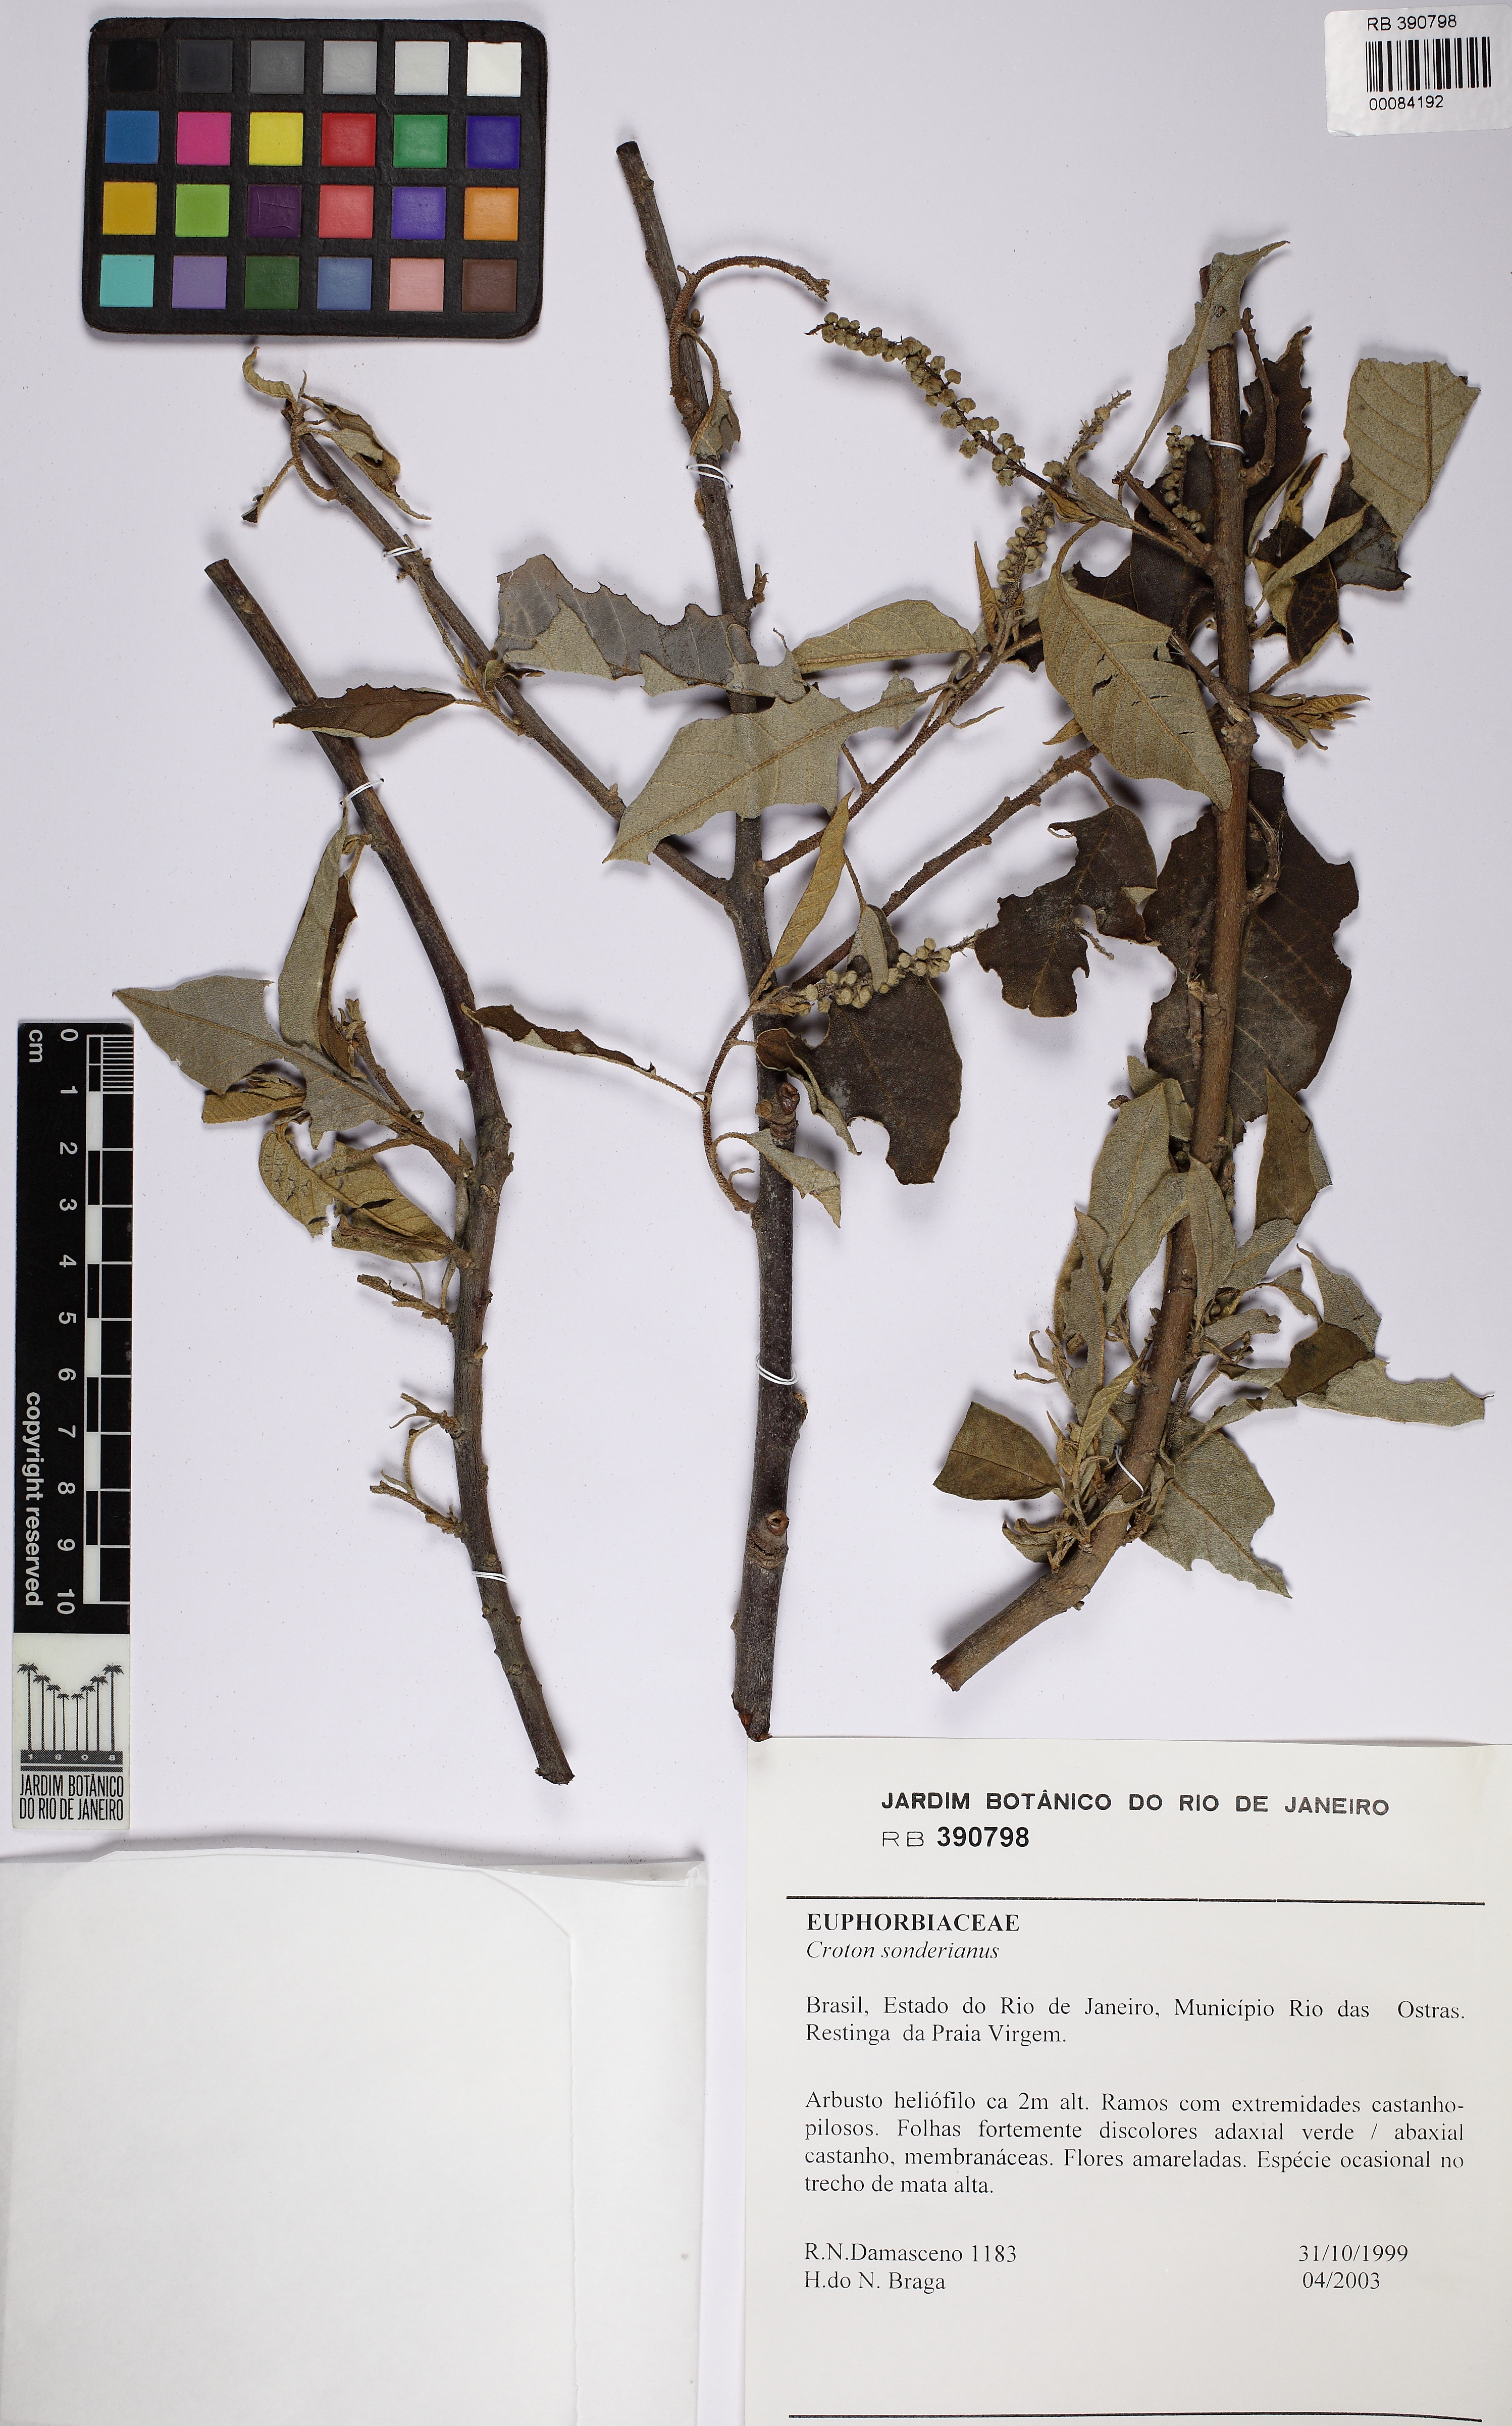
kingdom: Plantae
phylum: Tracheophyta
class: Magnoliopsida
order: Malpighiales
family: Euphorbiaceae
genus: Croton
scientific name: Croton sonderianus
